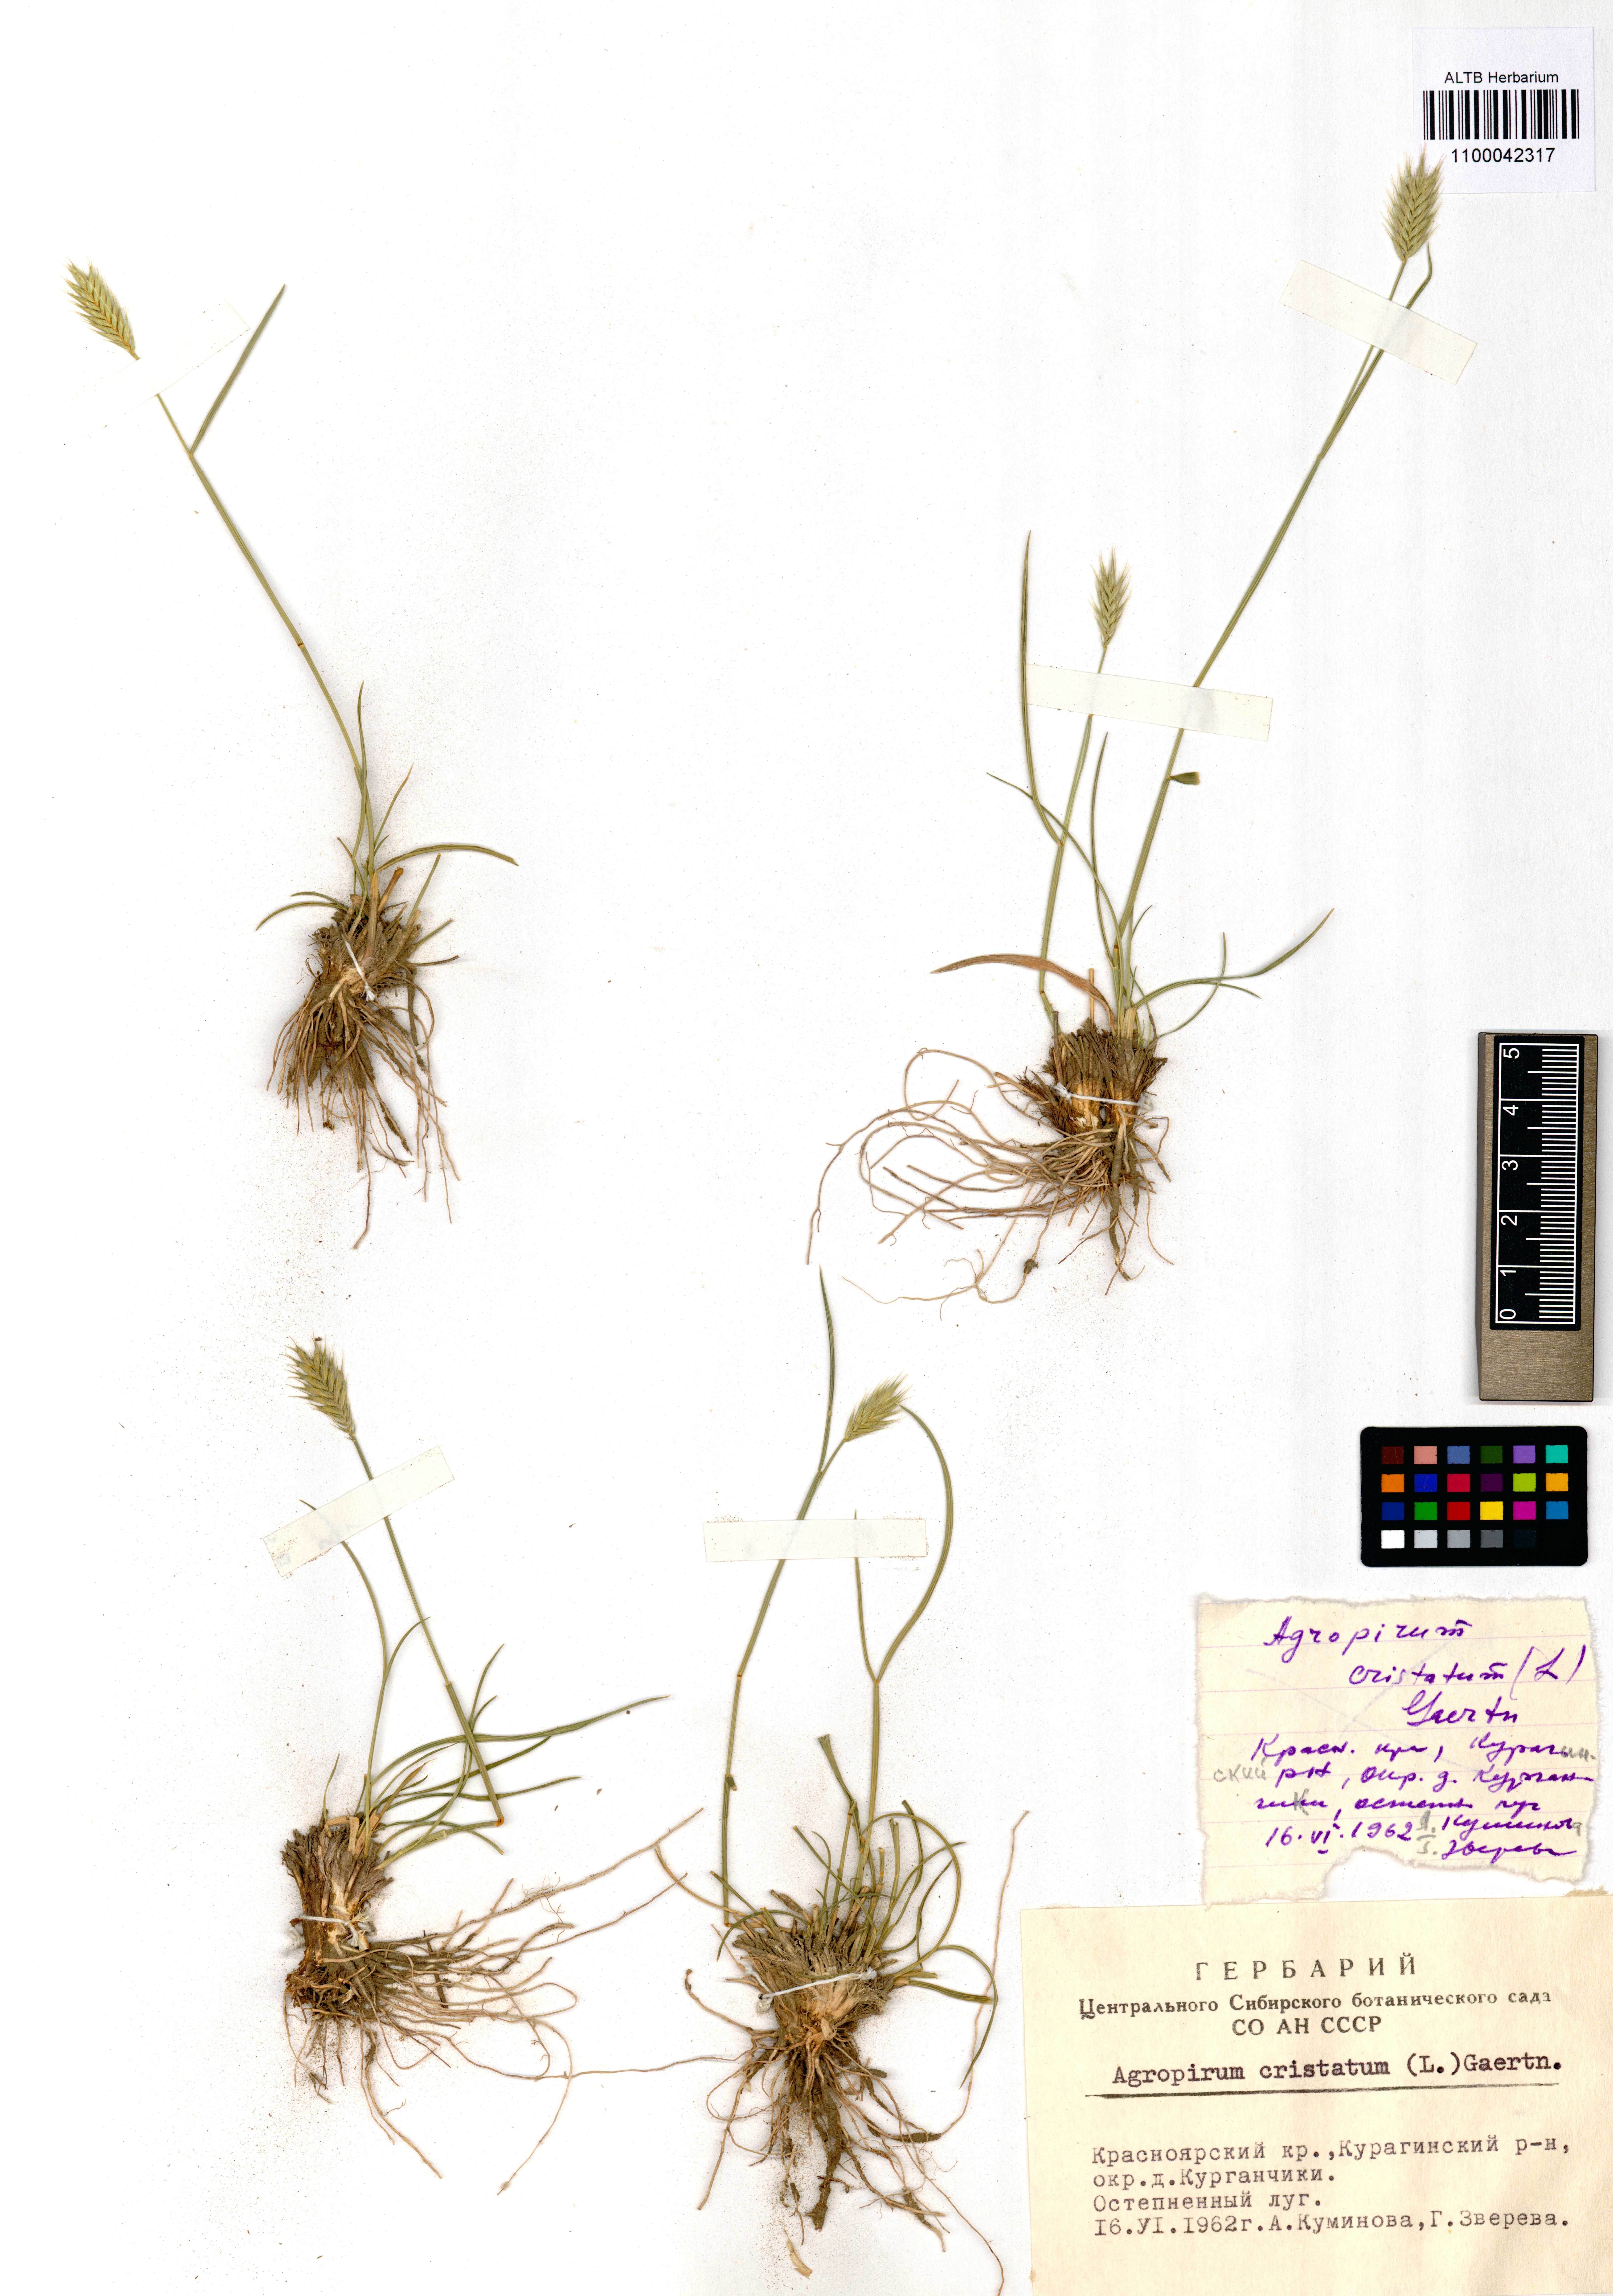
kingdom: Plantae
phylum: Tracheophyta
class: Liliopsida
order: Poales
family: Poaceae
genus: Agropyron
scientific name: Agropyron cristatum
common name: Crested wheatgrass
